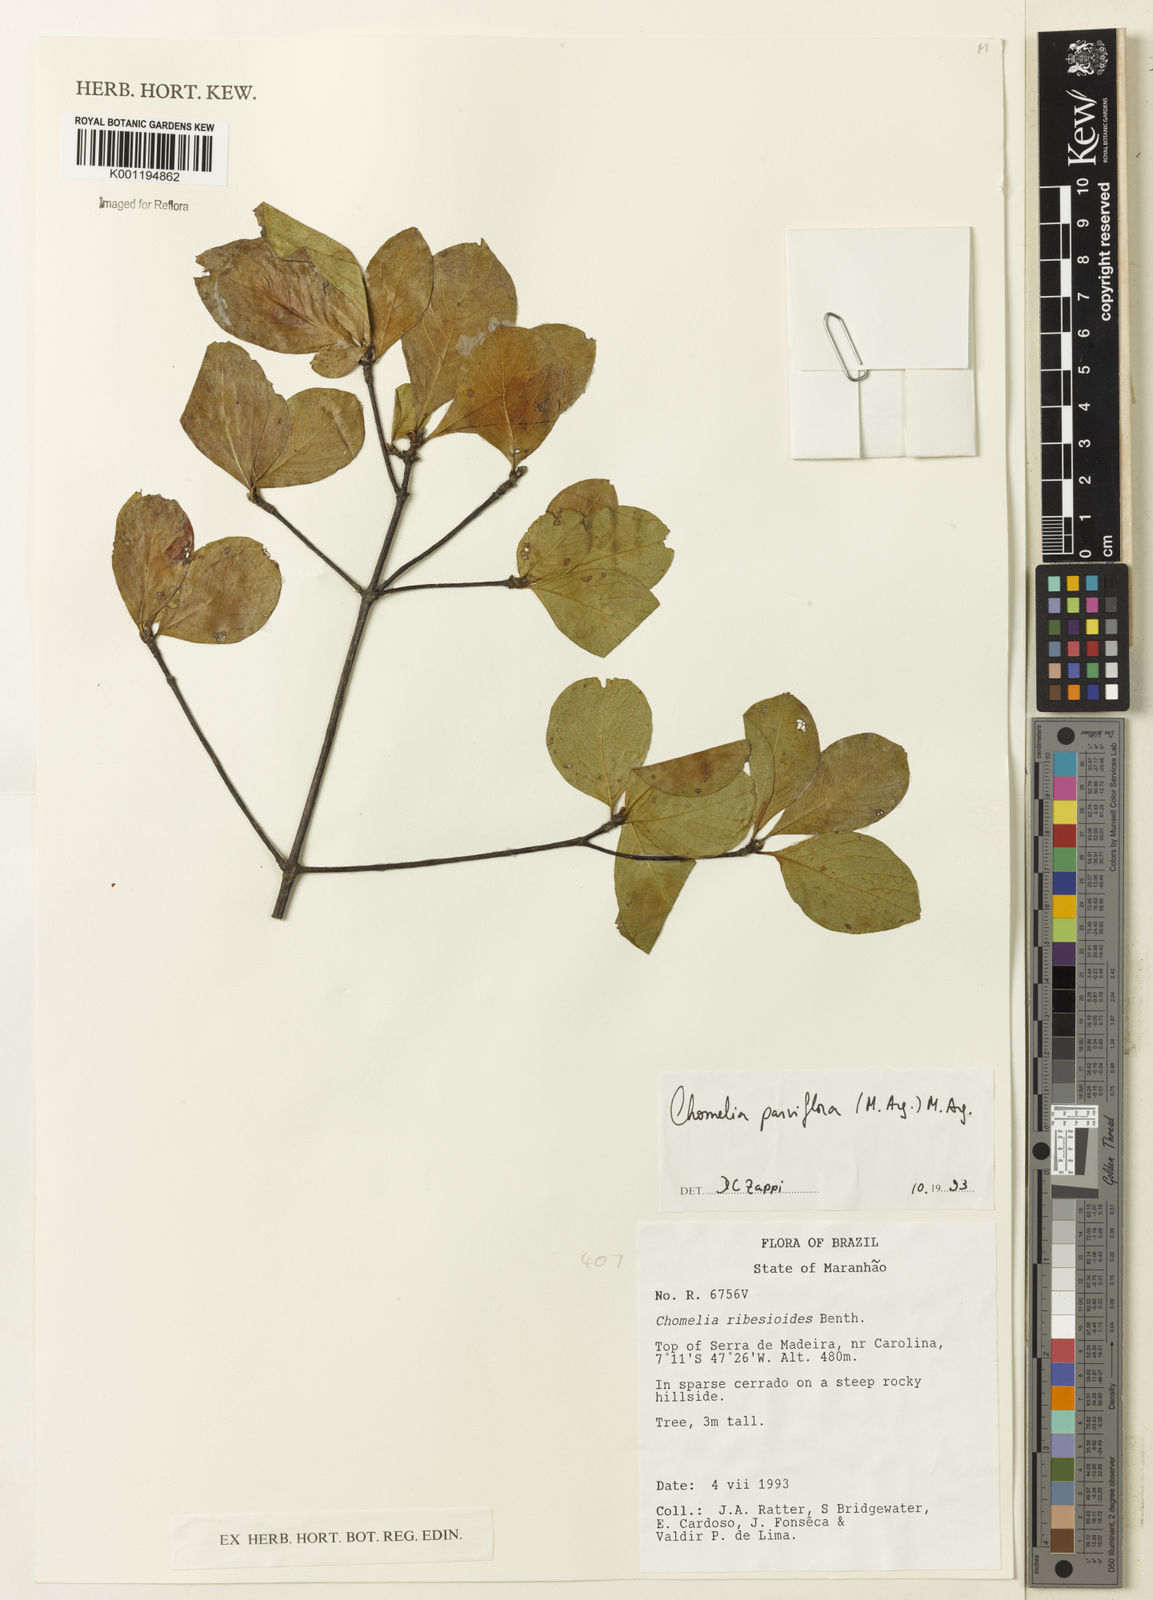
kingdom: Plantae
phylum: Tracheophyta
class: Magnoliopsida
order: Gentianales
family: Rubiaceae
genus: Chomelia
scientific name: Chomelia
